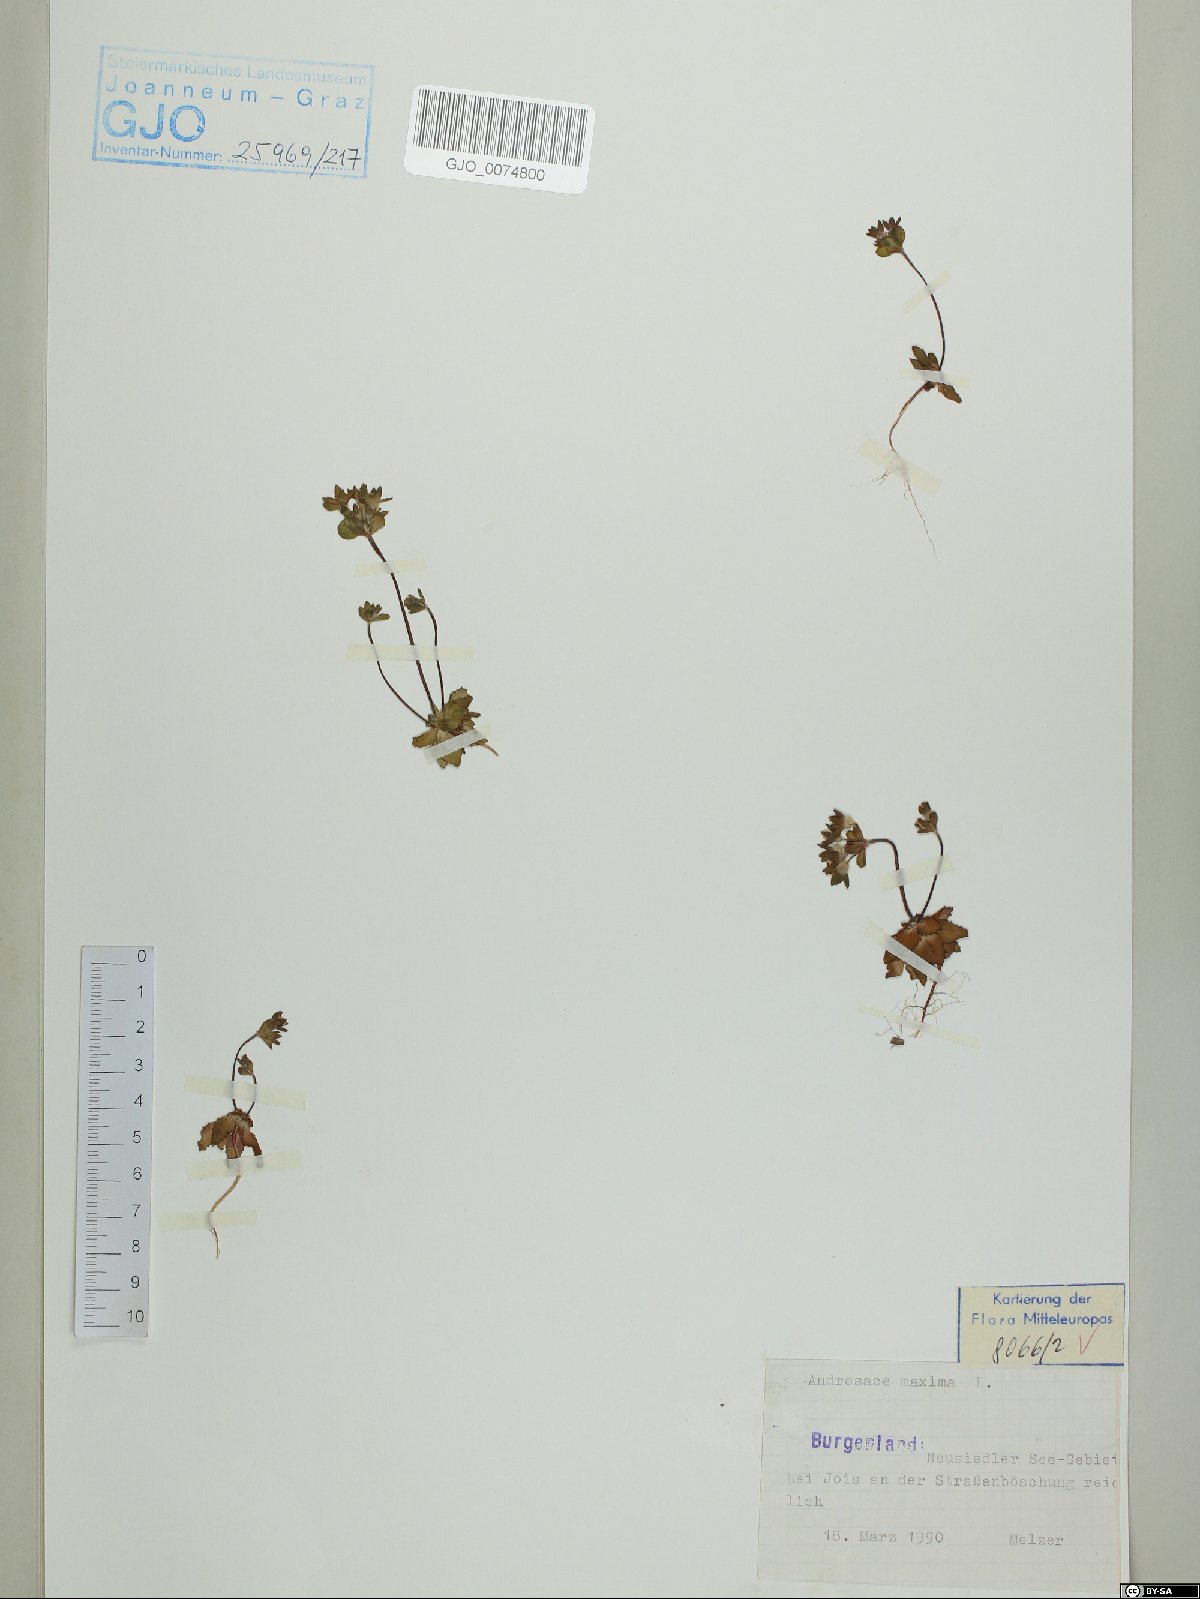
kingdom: Plantae
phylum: Tracheophyta
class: Magnoliopsida
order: Ericales
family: Primulaceae
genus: Androsace
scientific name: Androsace maxima
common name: Annual androsace
